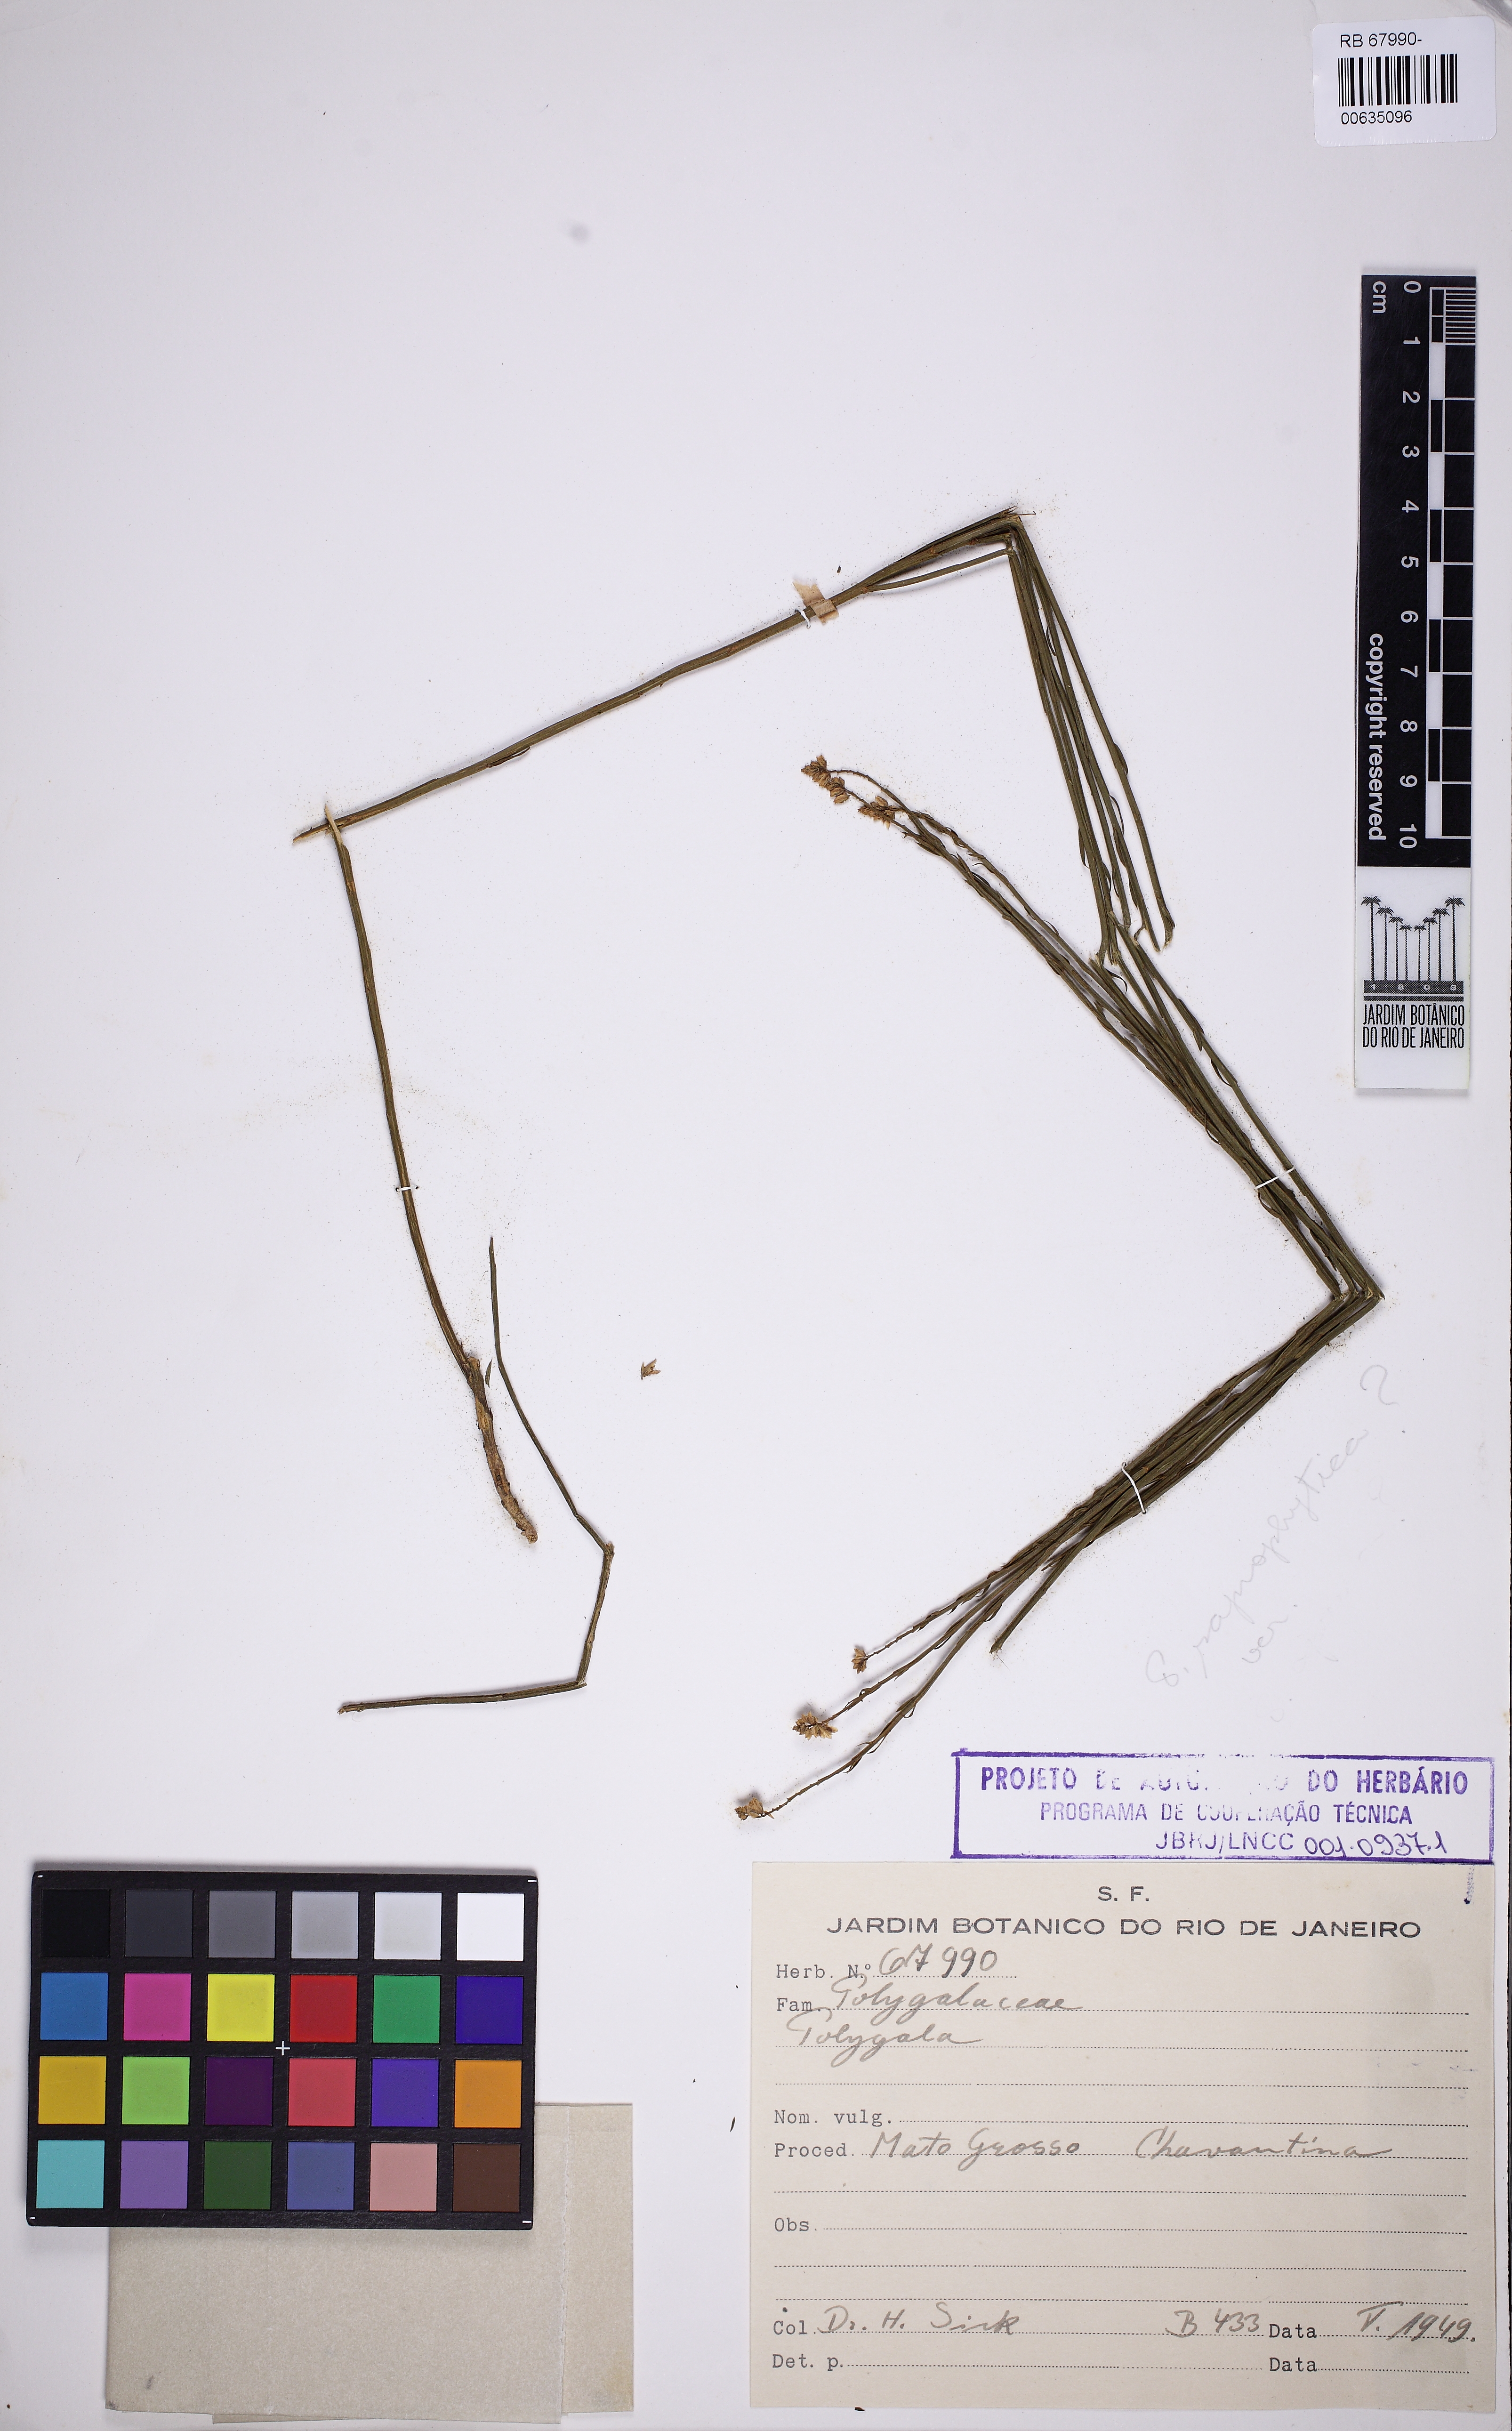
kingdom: Plantae
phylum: Tracheophyta
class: Magnoliopsida
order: Fabales
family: Polygalaceae
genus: Polygala
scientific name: Polygala
